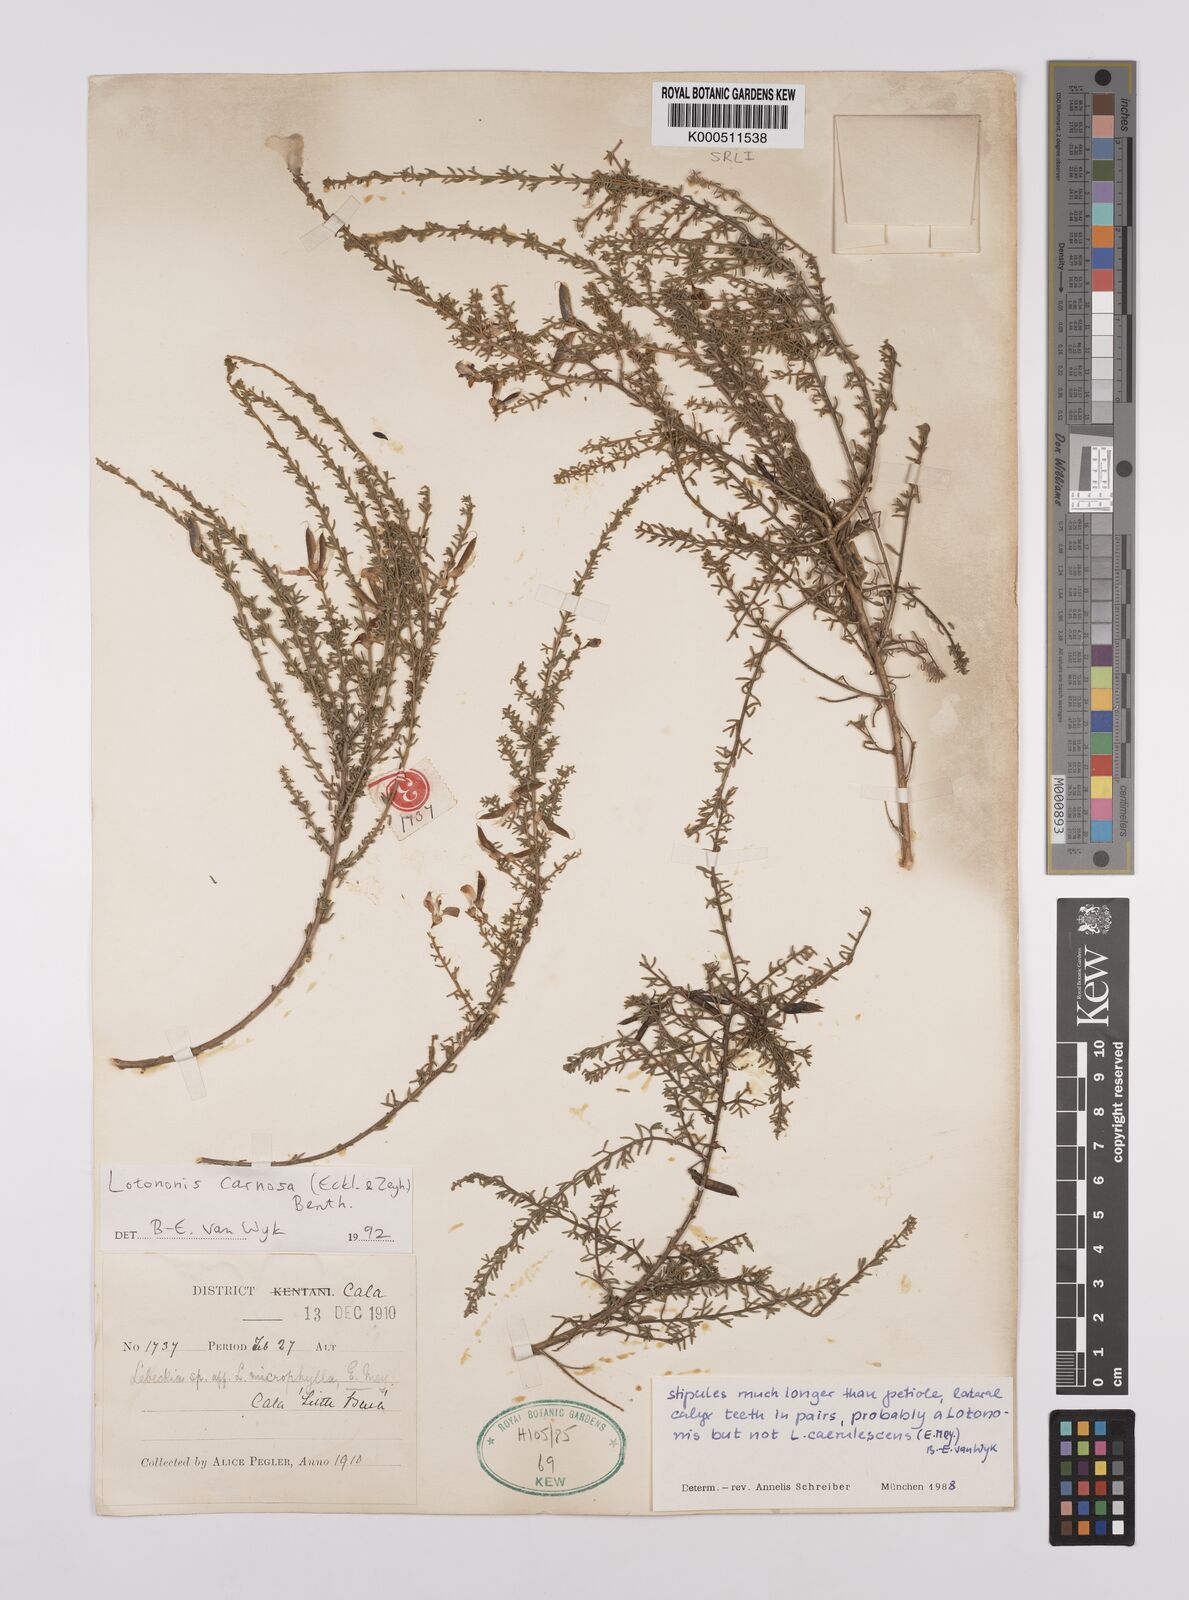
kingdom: Plantae
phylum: Tracheophyta
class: Magnoliopsida
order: Fabales
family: Fabaceae
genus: Lotononis
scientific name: Lotononis carnosa
